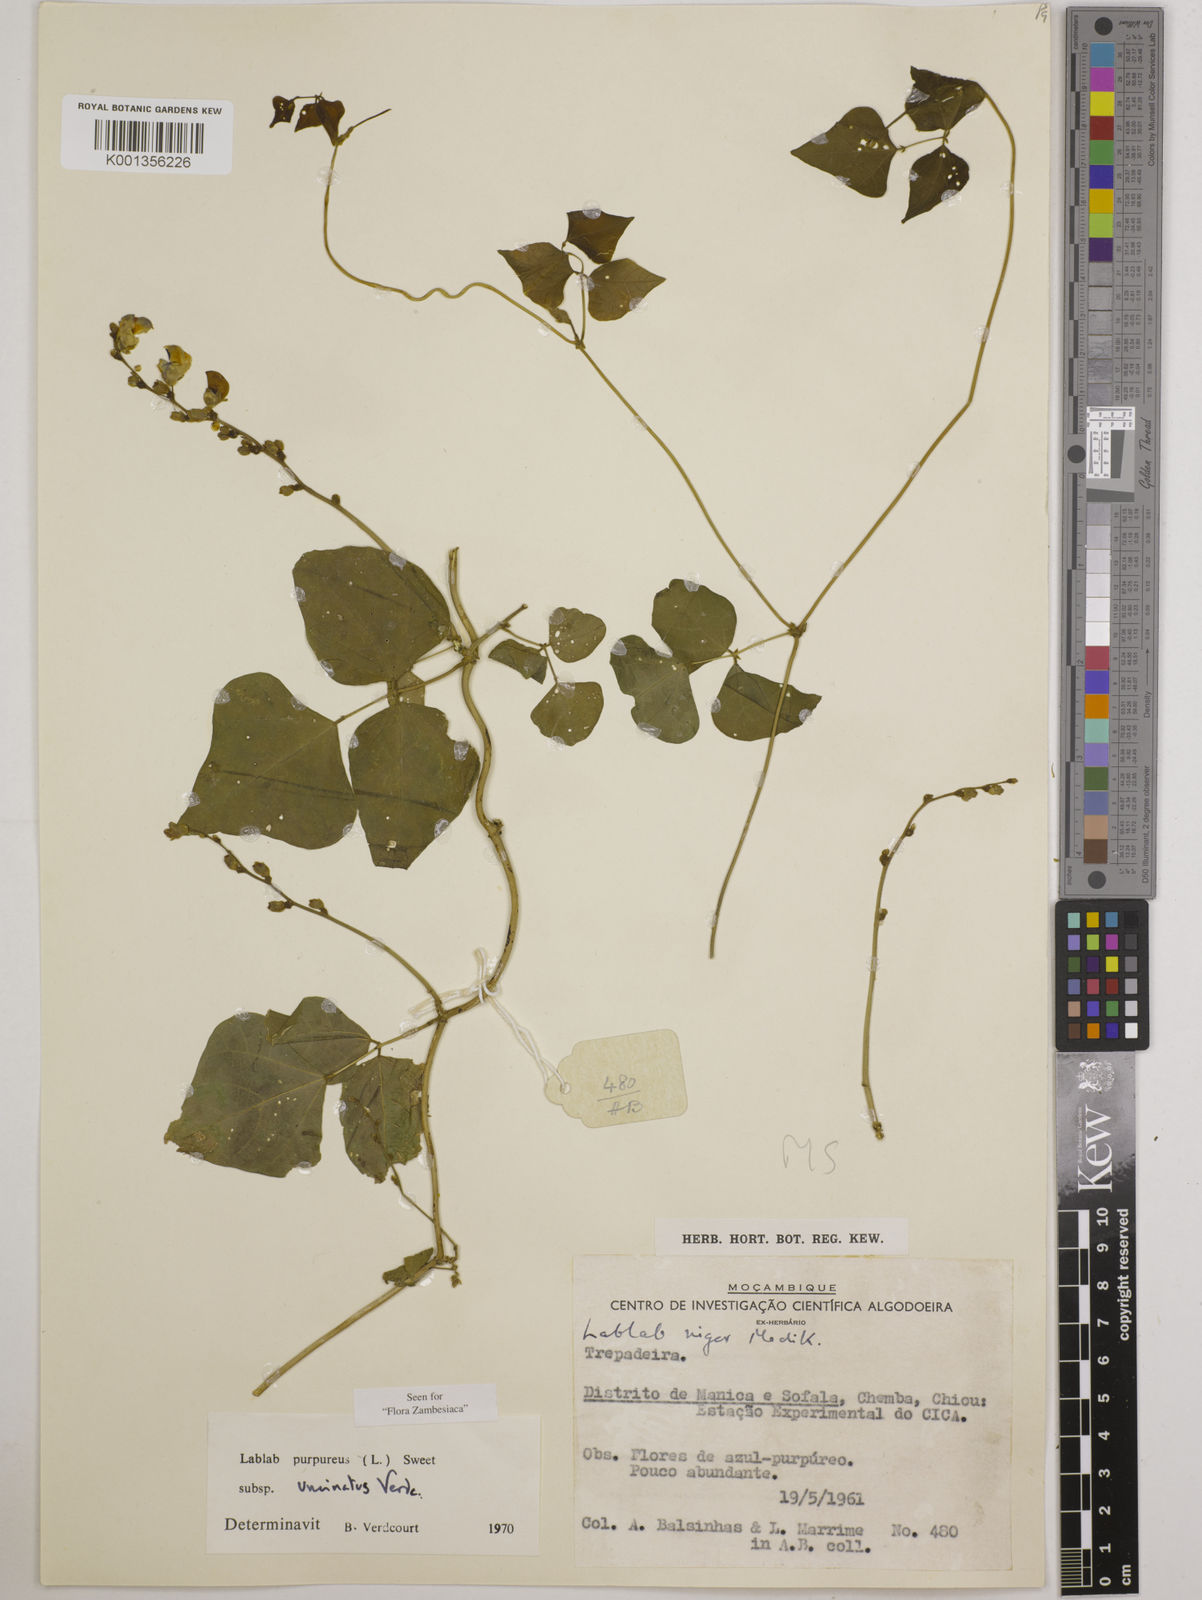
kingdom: Plantae
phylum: Tracheophyta
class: Magnoliopsida
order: Fabales
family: Fabaceae
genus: Lablab
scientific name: Lablab purpureus
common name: Lablab-bean
